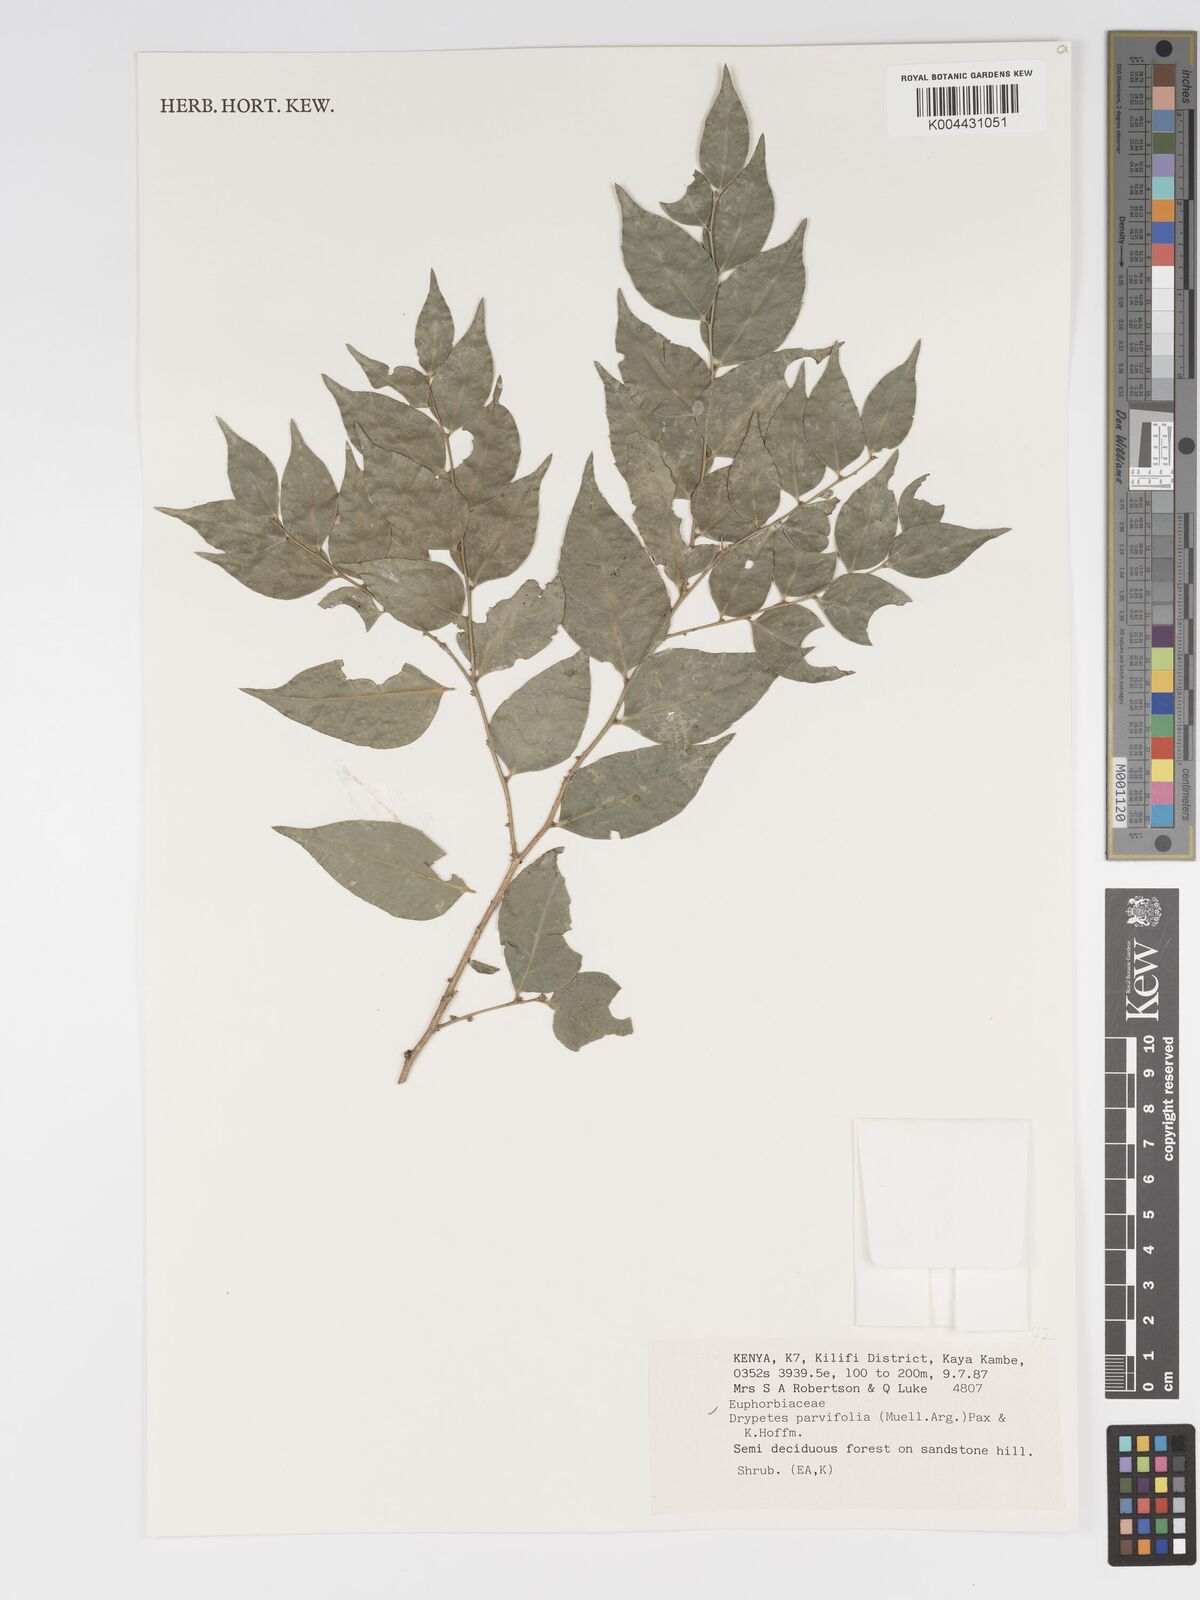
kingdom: Plantae
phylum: Tracheophyta
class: Magnoliopsida
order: Malpighiales
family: Putranjivaceae
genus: Drypetes
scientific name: Drypetes parvifolia
